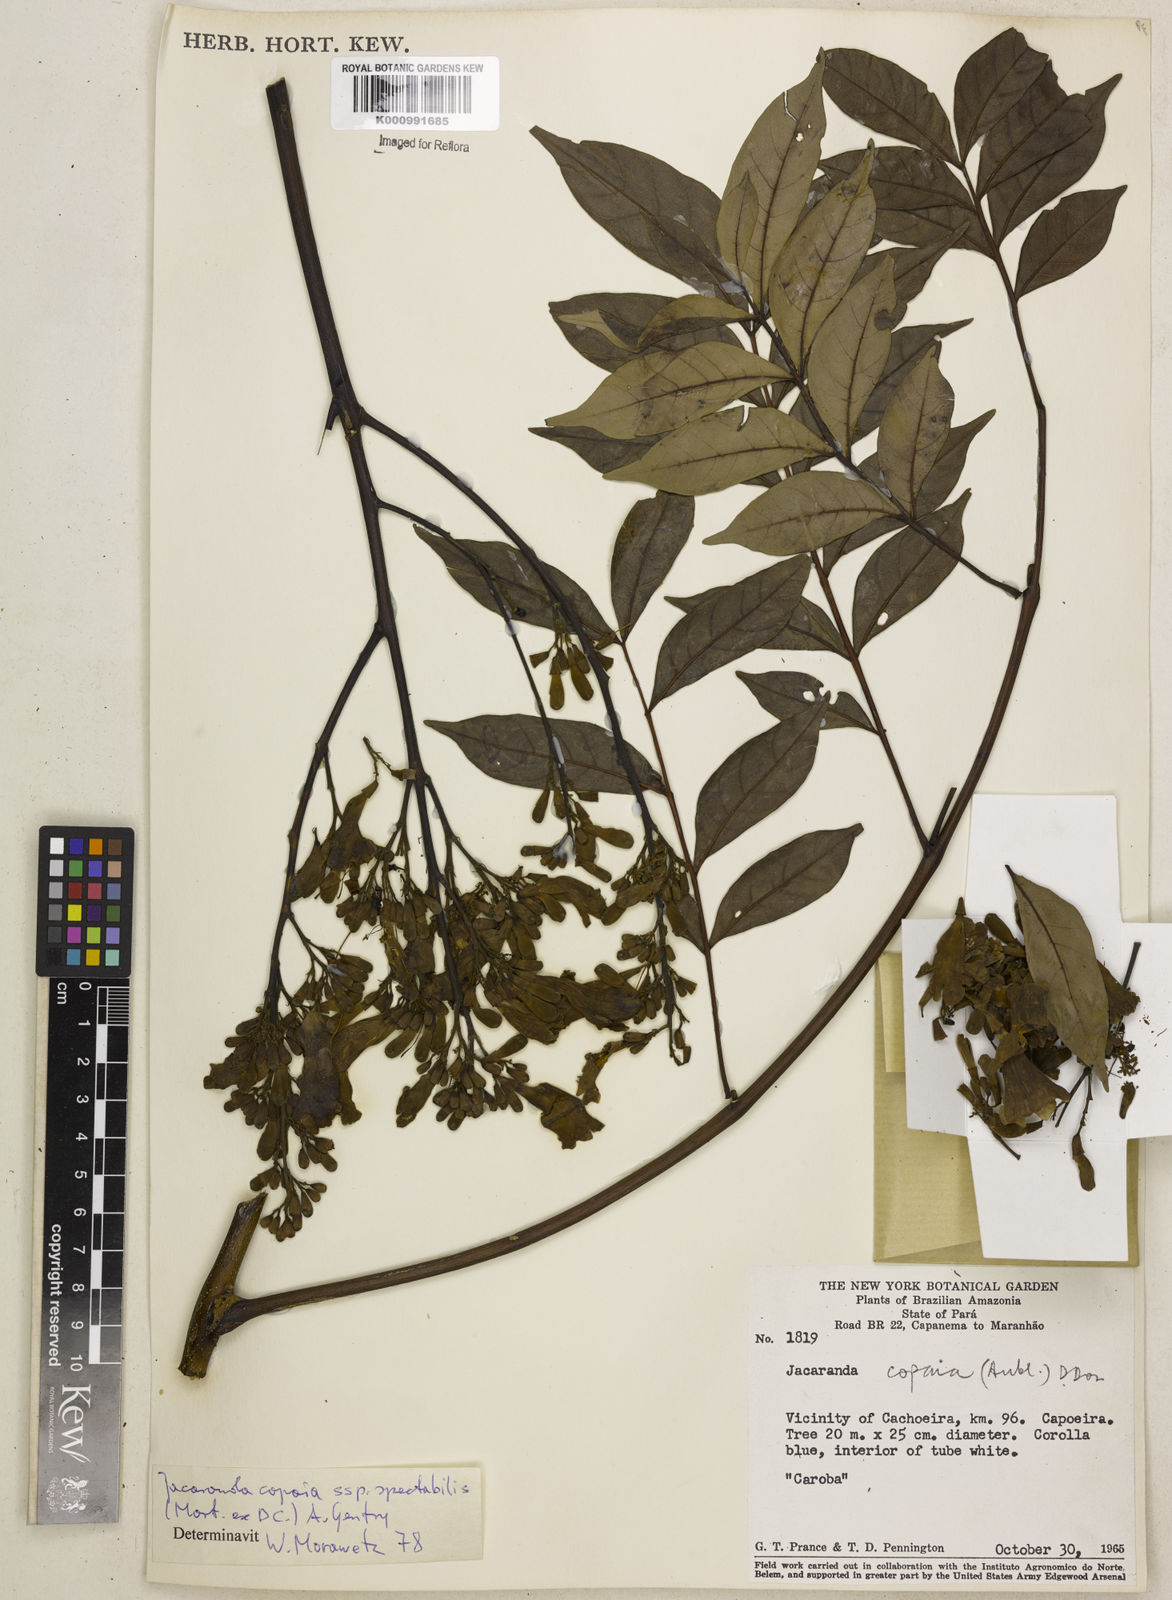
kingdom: Plantae
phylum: Tracheophyta
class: Magnoliopsida
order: Lamiales
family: Bignoniaceae
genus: Jacaranda
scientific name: Jacaranda
